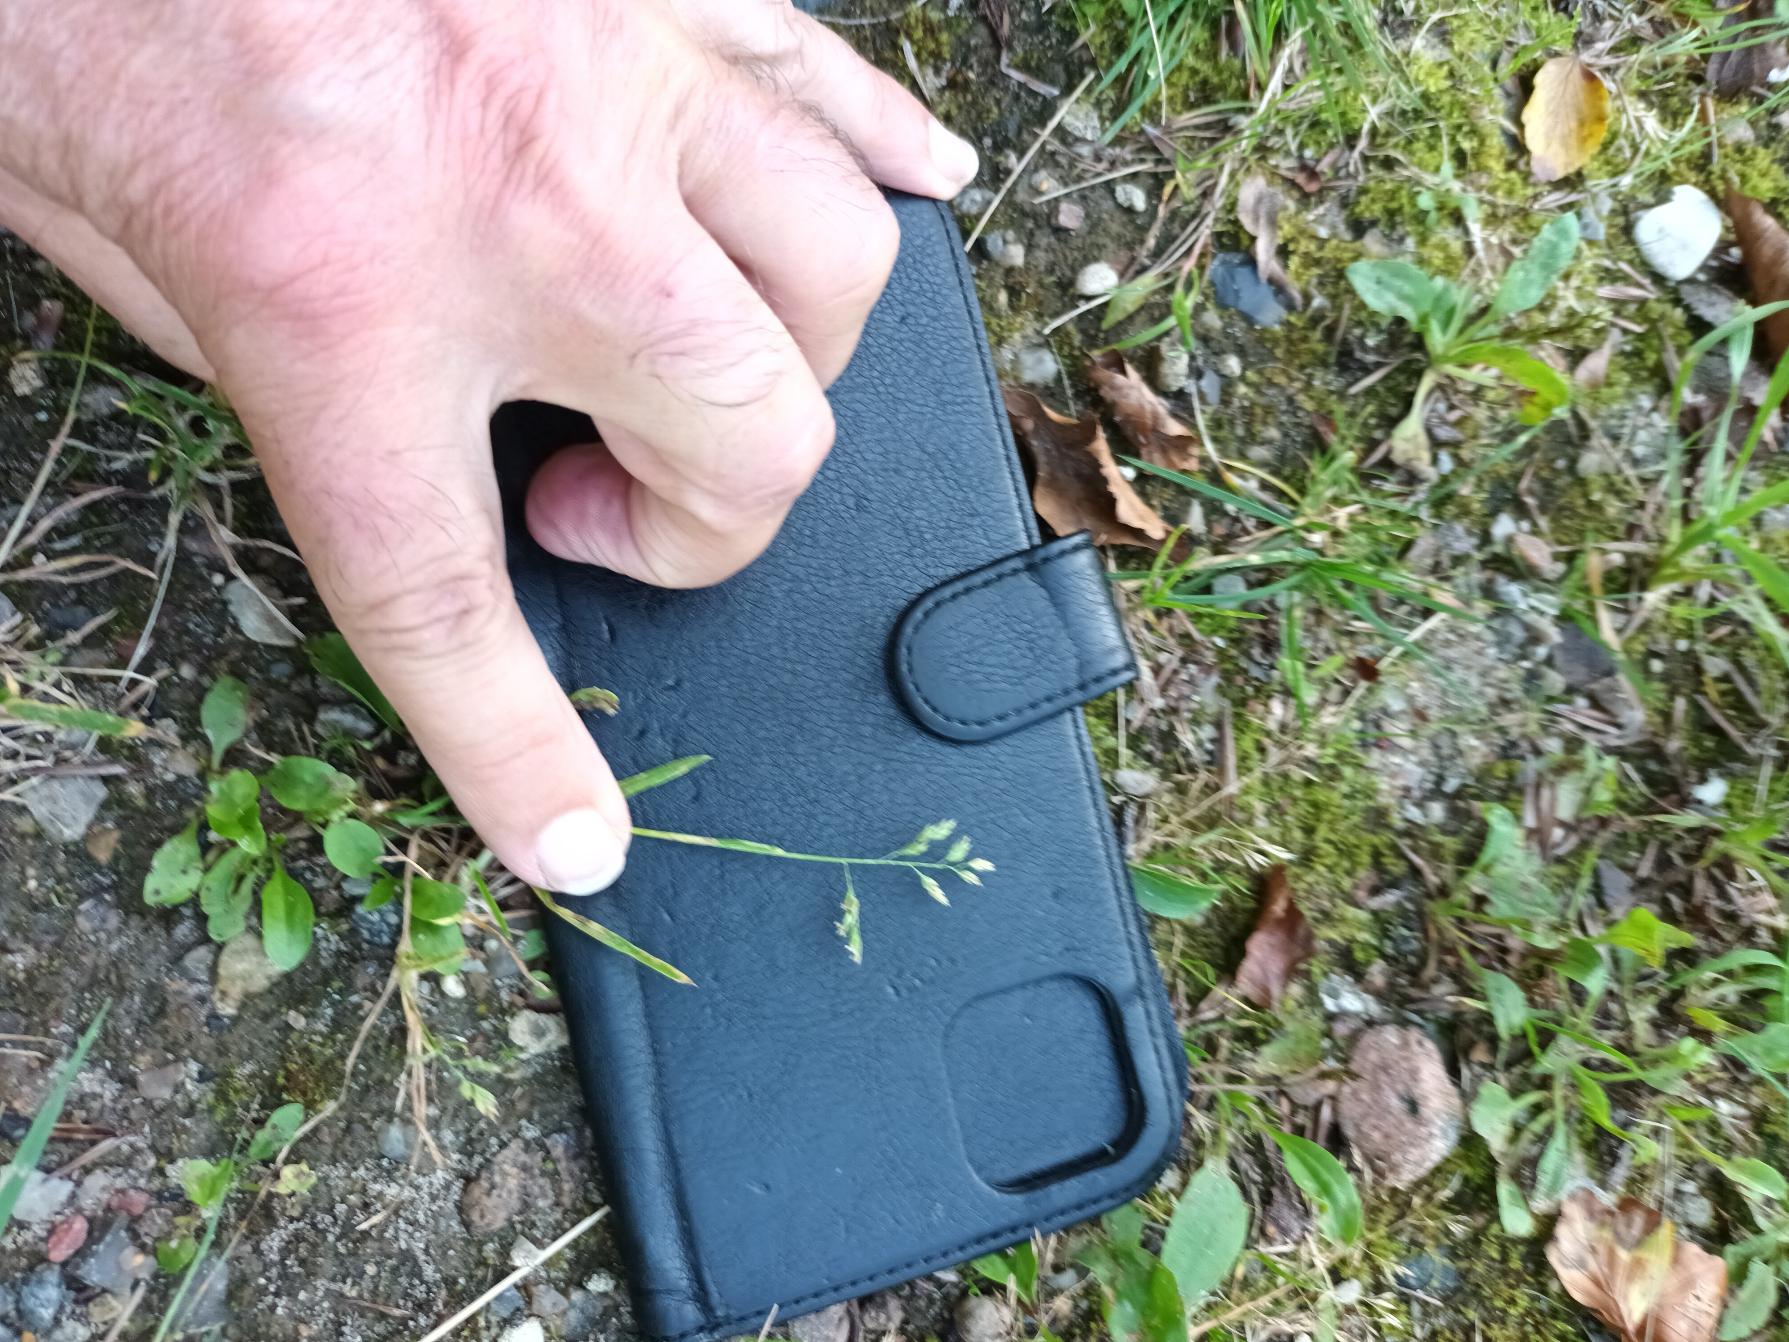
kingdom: Plantae
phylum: Tracheophyta
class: Liliopsida
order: Poales
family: Poaceae
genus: Poa
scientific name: Poa annua
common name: Enårig rapgræs
